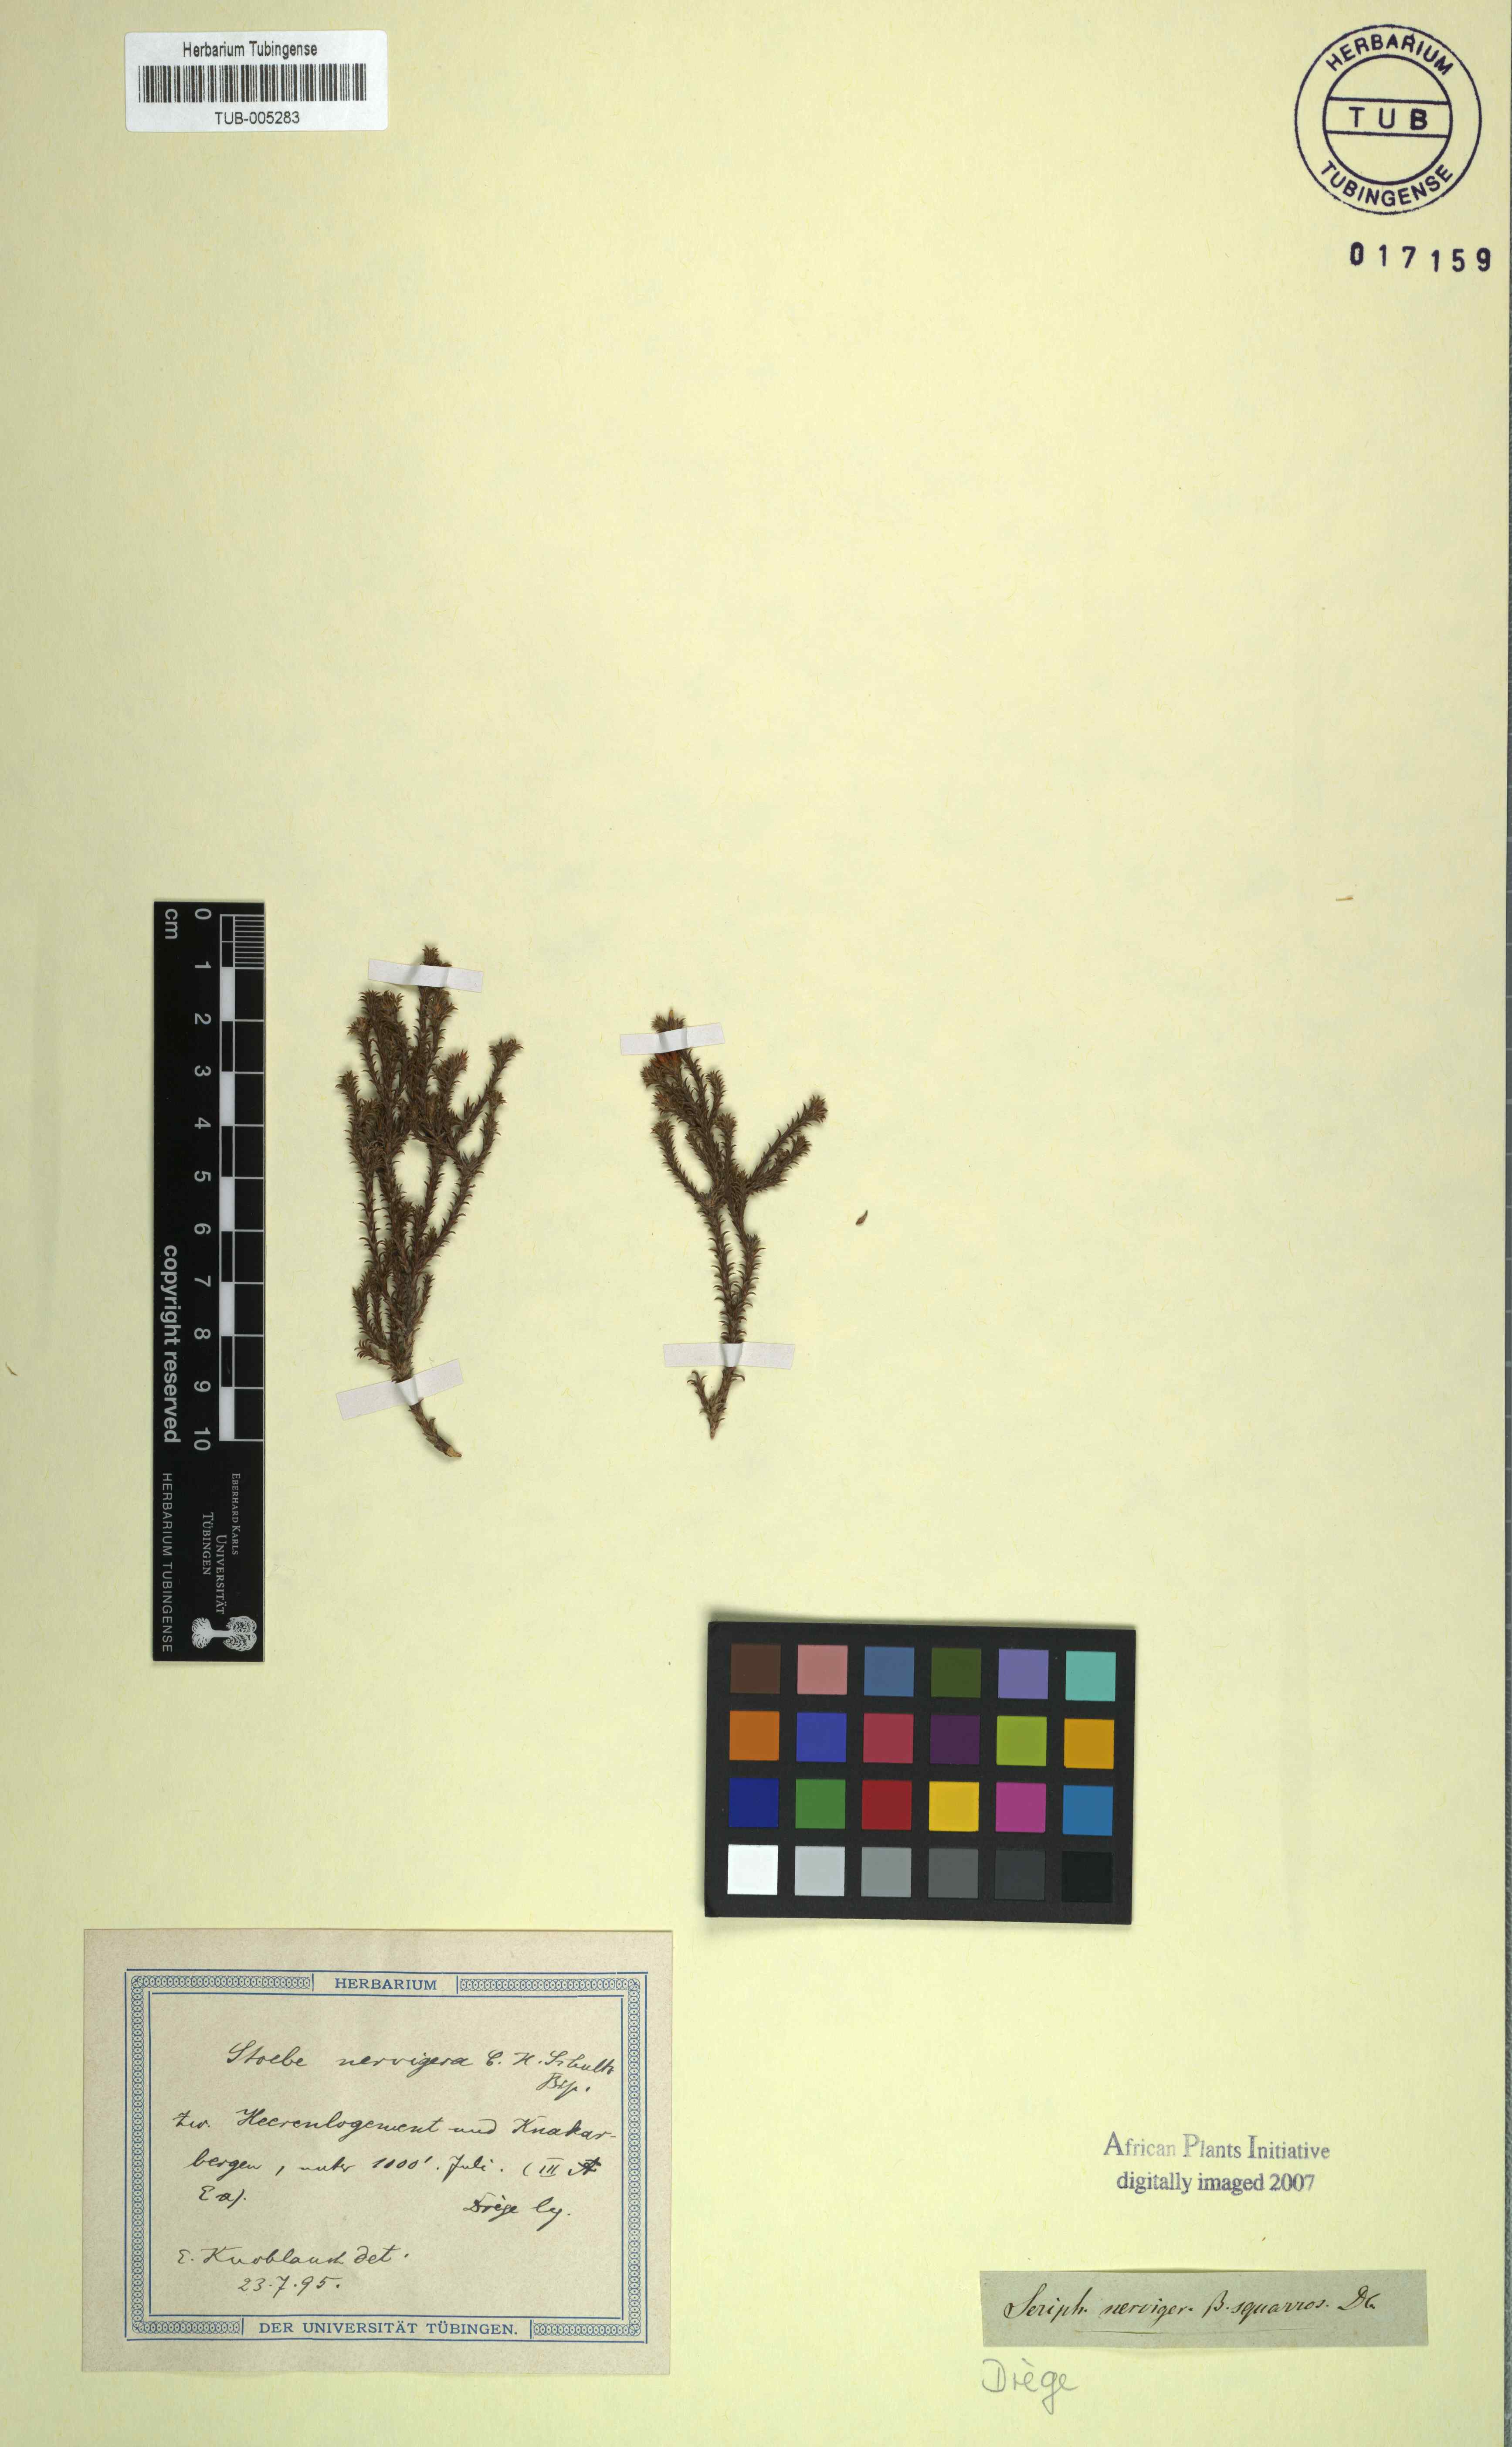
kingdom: Plantae
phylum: Tracheophyta
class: Magnoliopsida
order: Asterales
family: Asteraceae
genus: Stoebe
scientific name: Stoebe nervigera
